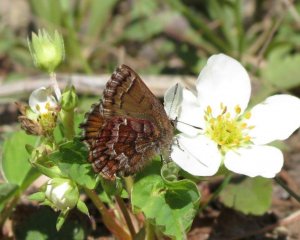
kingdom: Animalia
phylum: Arthropoda
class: Insecta
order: Lepidoptera
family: Lycaenidae
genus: Incisalia
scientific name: Incisalia niphon
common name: Eastern Pine Elfin
